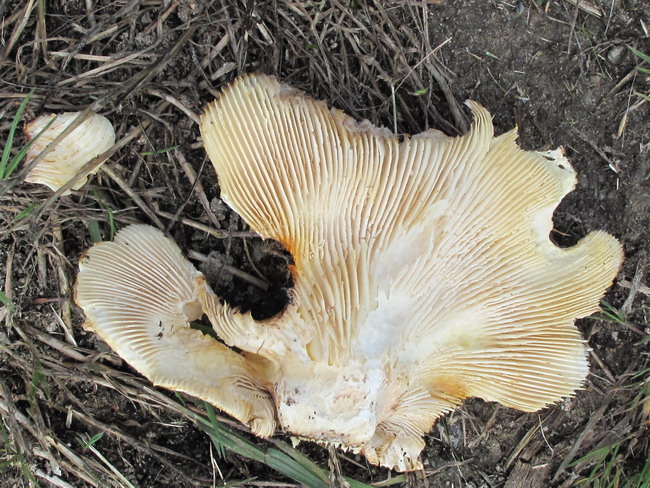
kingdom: Fungi
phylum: Basidiomycota
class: Agaricomycetes
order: Gloeophyllales
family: Gloeophyllaceae
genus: Neolentinus
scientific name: Neolentinus lepideus
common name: skællet sejhat
